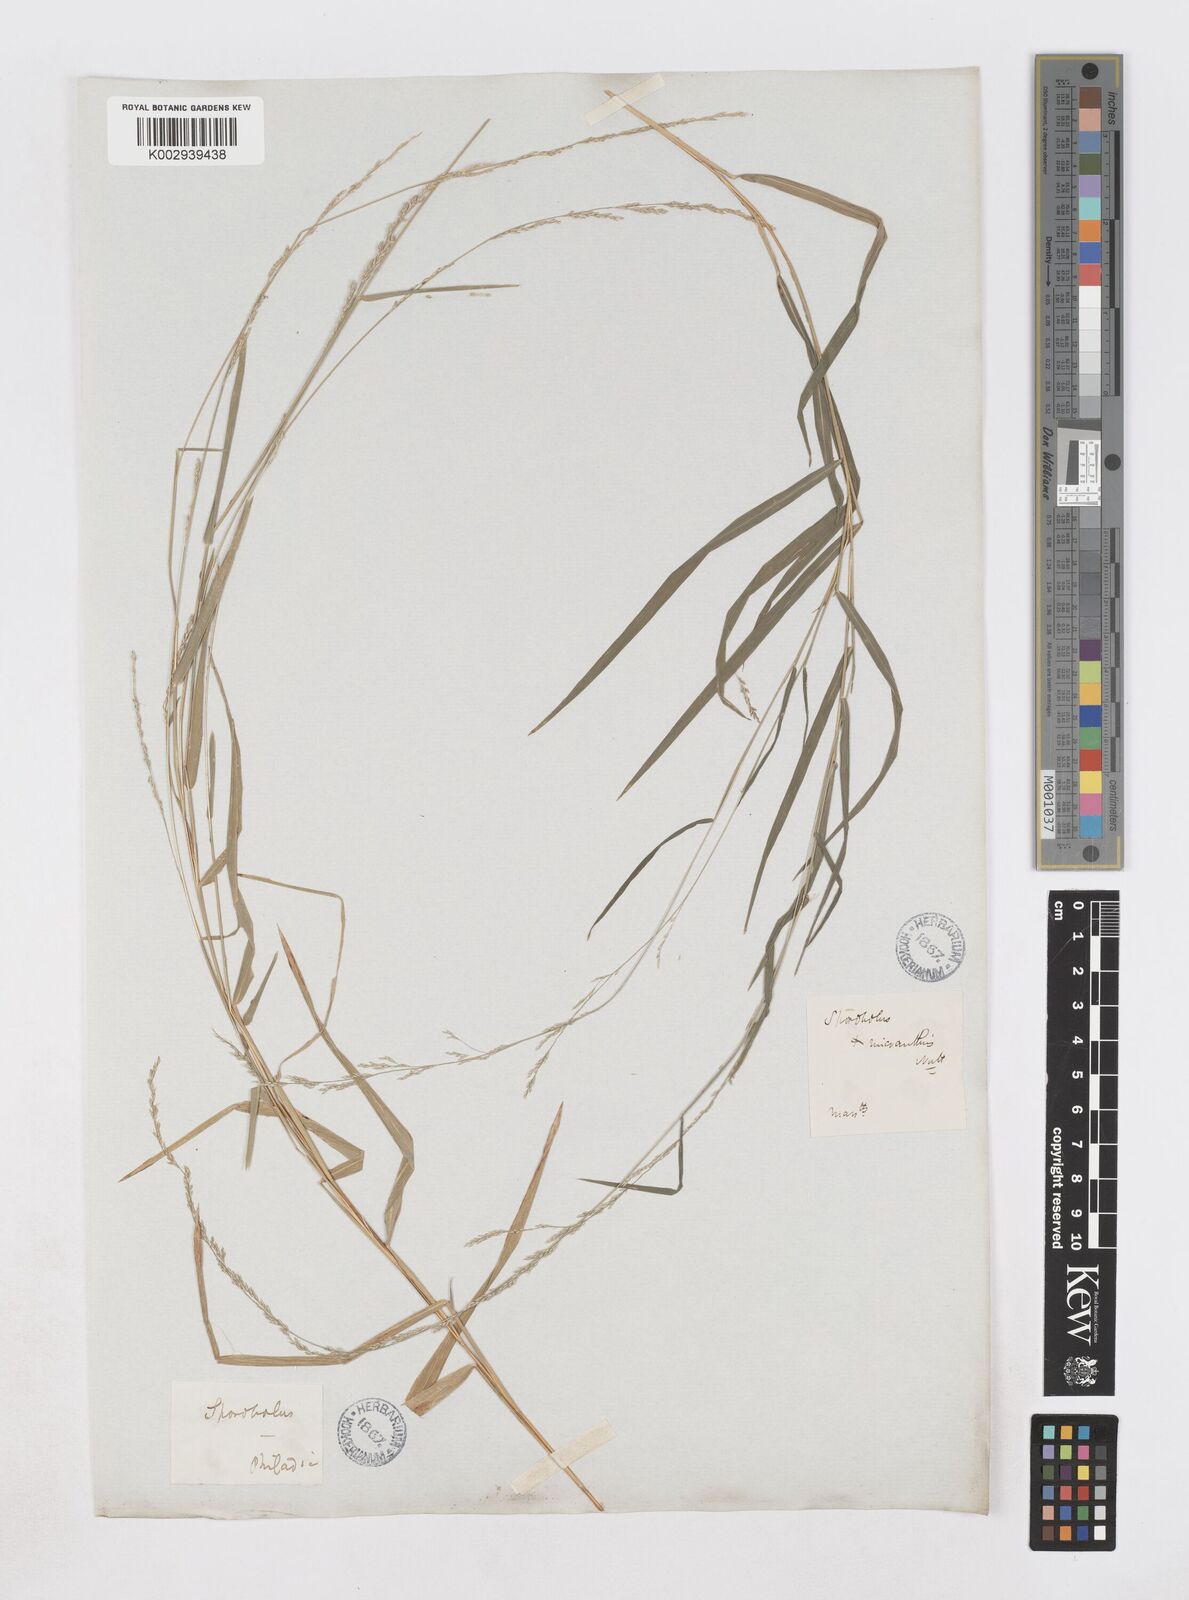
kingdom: Plantae
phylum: Tracheophyta
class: Liliopsida
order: Poales
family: Poaceae
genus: Muhlenbergia
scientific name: Muhlenbergia sobolifera
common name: Creeping muhly
